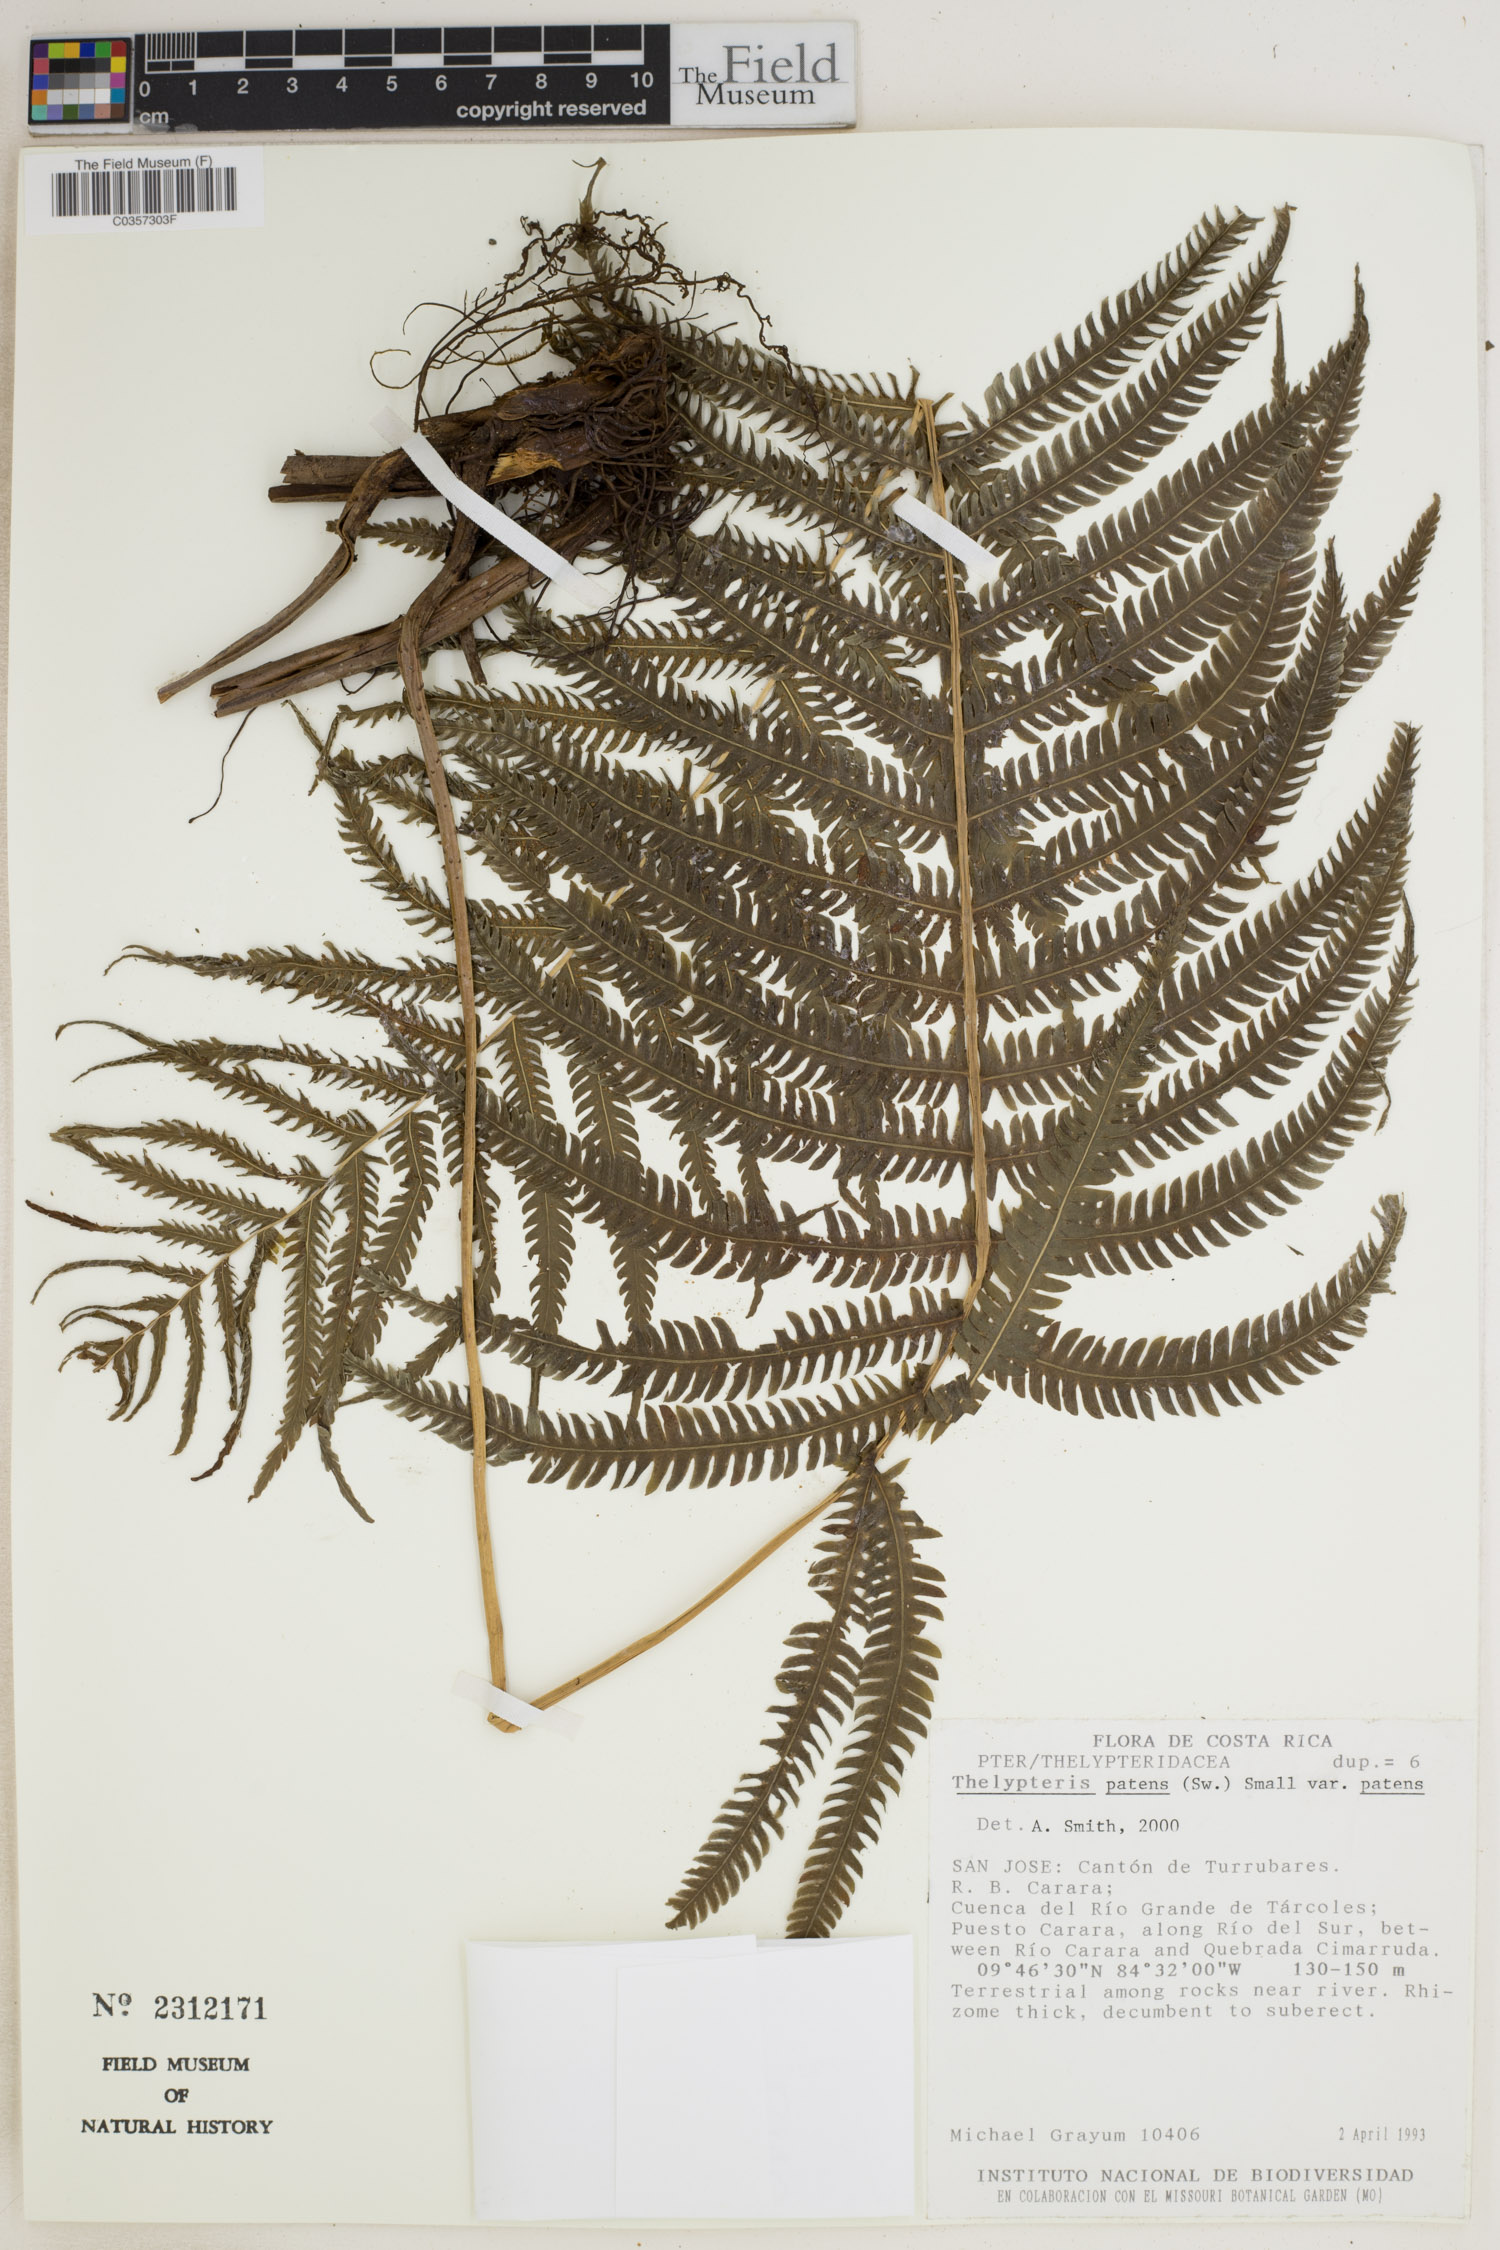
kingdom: Plantae
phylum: Tracheophyta
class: Polypodiopsida
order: Polypodiales
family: Thelypteridaceae
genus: Pelazoneuron
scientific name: Pelazoneuron patens
